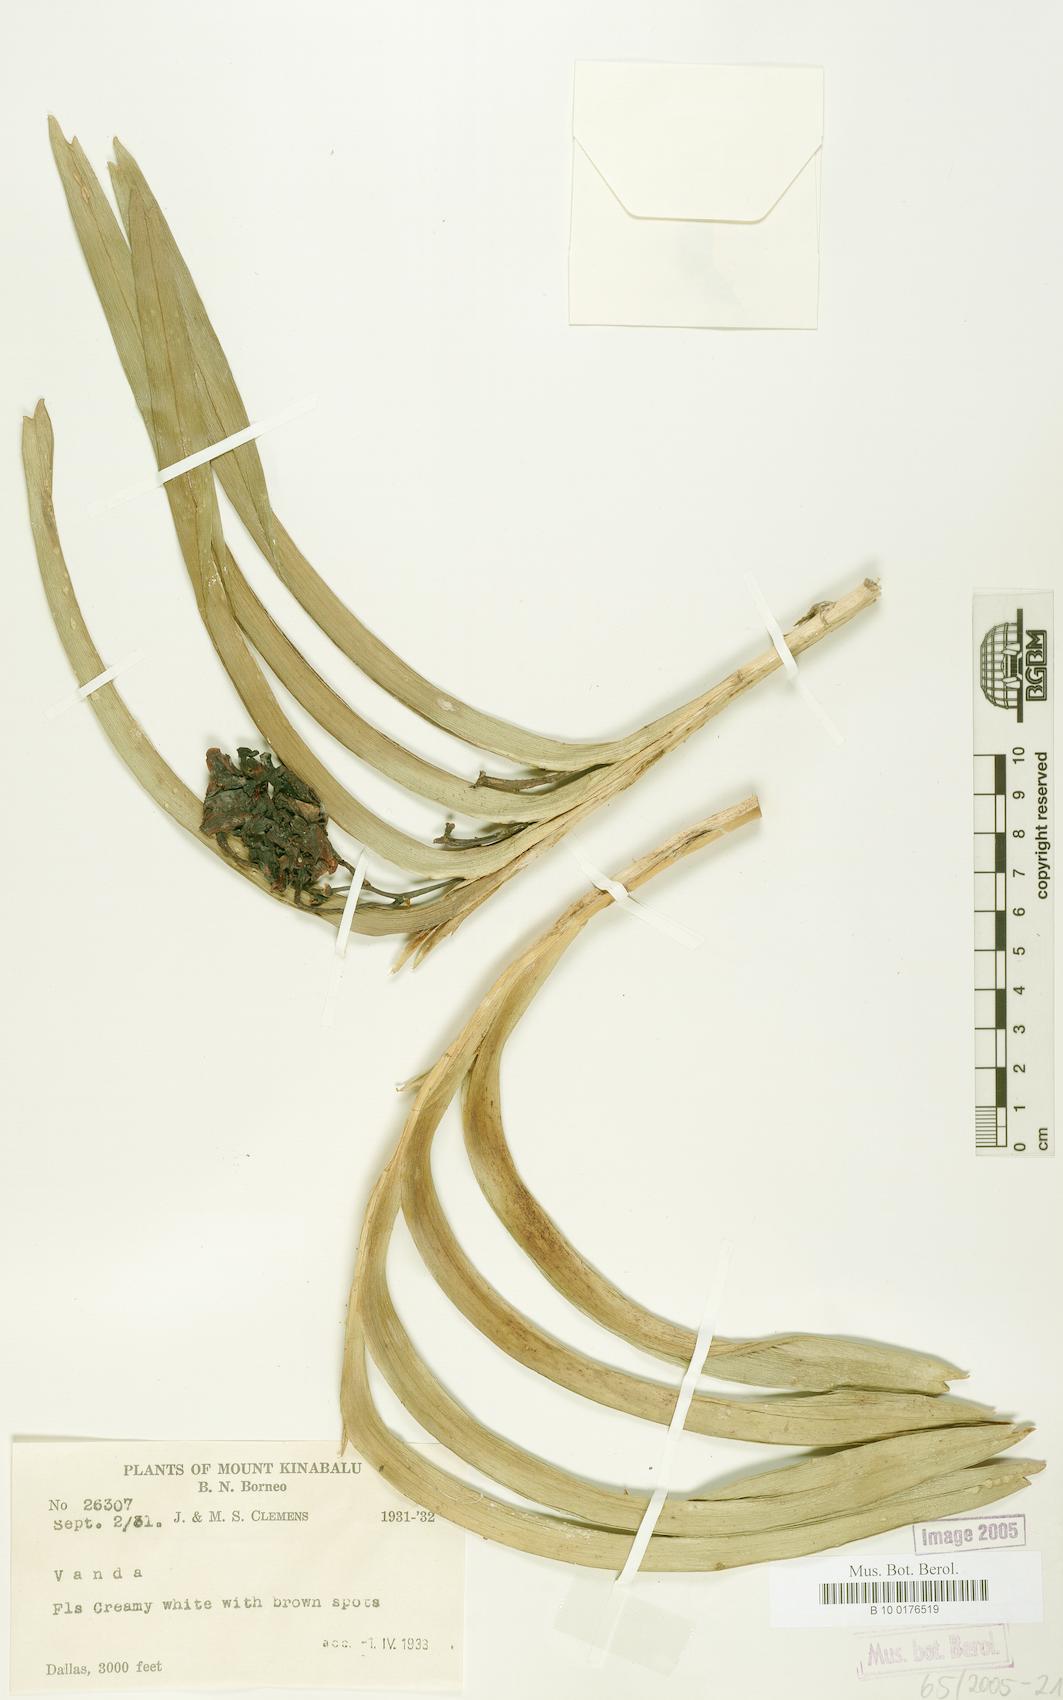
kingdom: Plantae
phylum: Tracheophyta
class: Liliopsida
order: Asparagales
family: Orchidaceae
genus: Vanda
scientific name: Vanda
